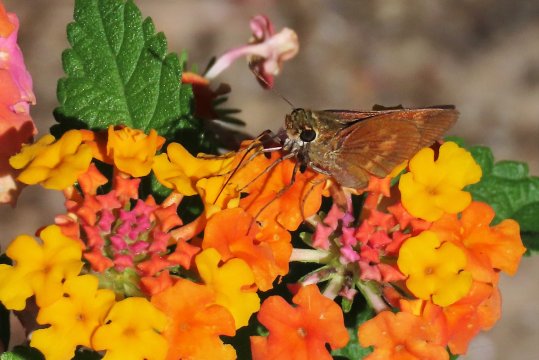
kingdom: Animalia
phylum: Arthropoda
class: Insecta
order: Lepidoptera
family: Hesperiidae
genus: Wallengrenia
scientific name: Wallengrenia otho
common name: Southern Broken-Dash
